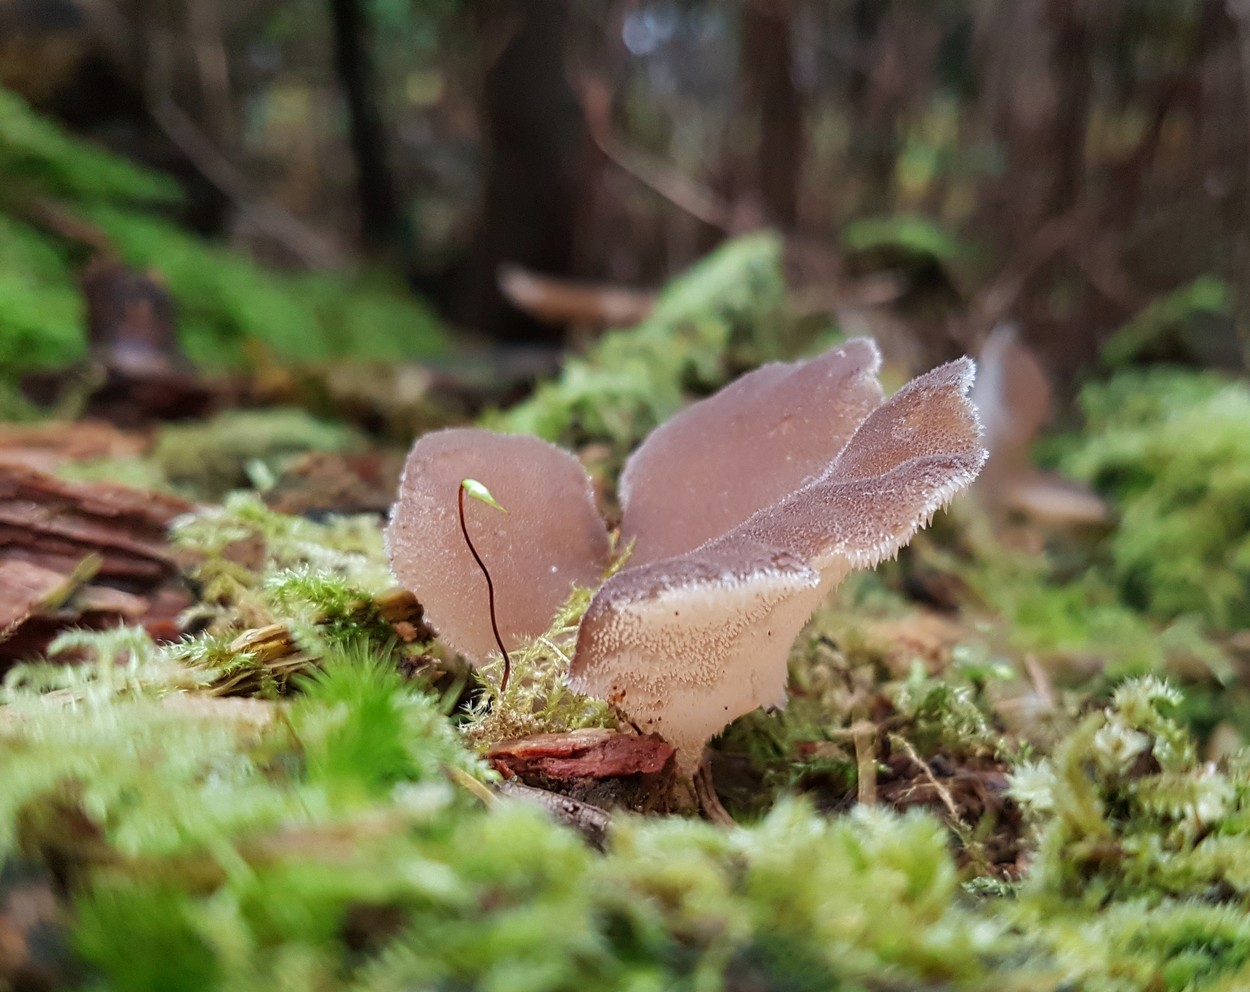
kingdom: Fungi
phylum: Basidiomycota
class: Agaricomycetes
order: Auriculariales
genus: Pseudohydnum
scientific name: Pseudohydnum gelatinosum
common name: bævretand
